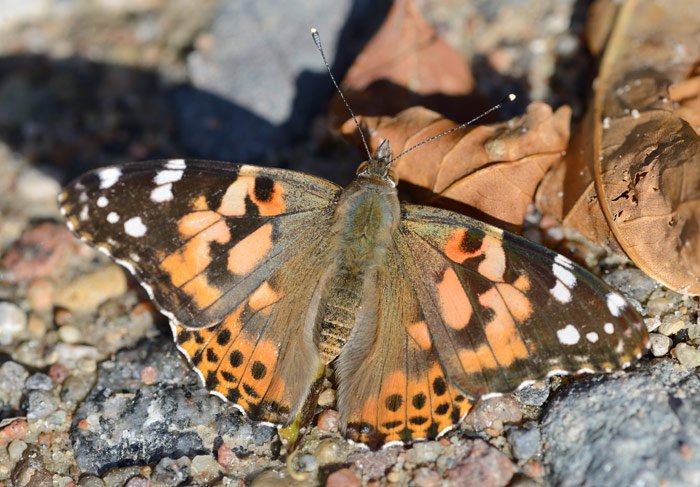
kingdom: Animalia
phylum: Arthropoda
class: Insecta
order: Lepidoptera
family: Nymphalidae
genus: Vanessa
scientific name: Vanessa cardui
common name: Painted Lady
